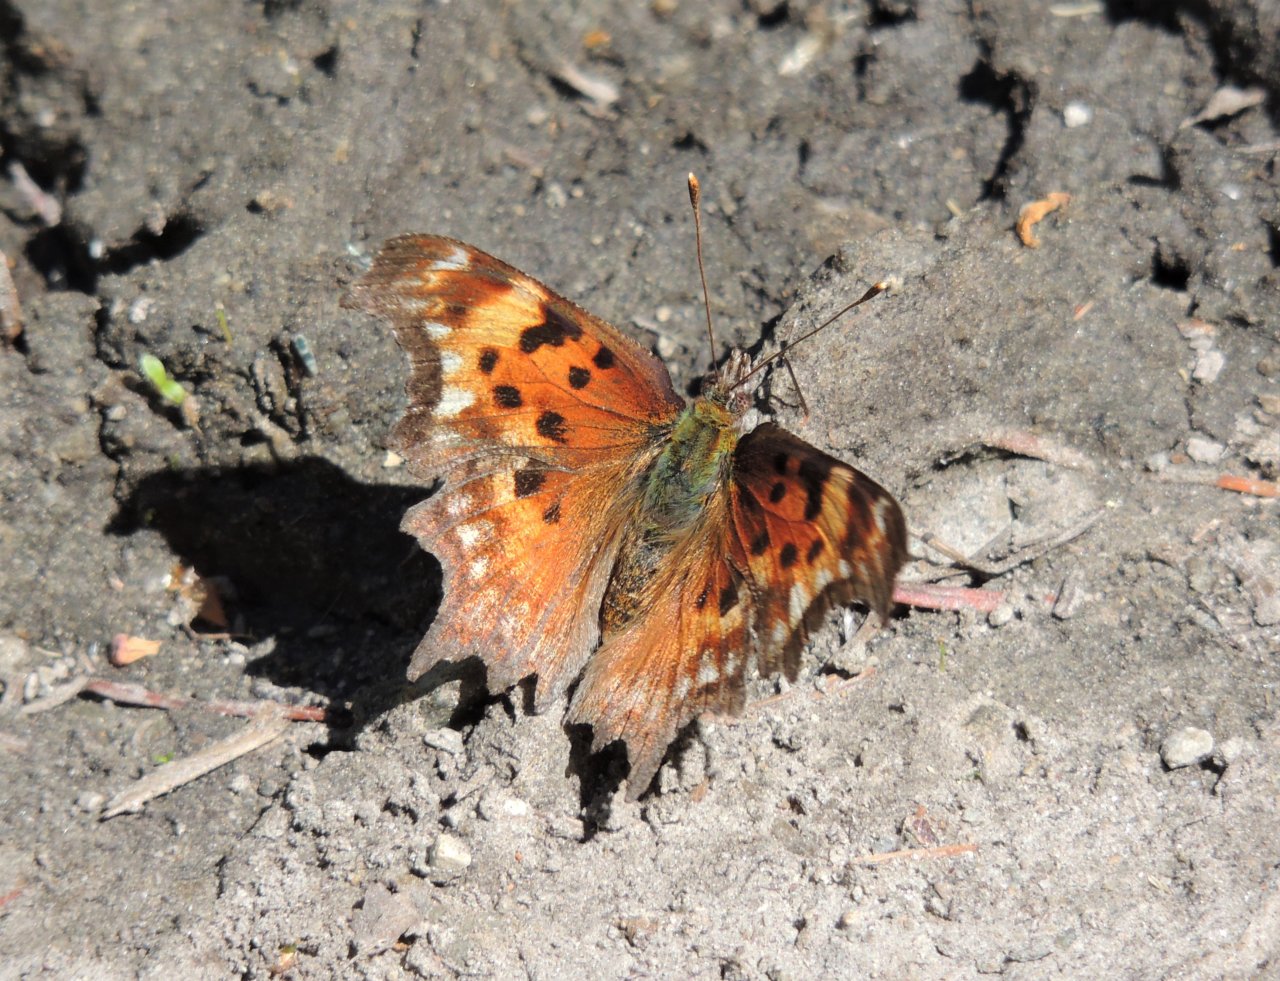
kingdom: Animalia
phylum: Arthropoda
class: Insecta
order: Lepidoptera
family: Nymphalidae
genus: Polygonia
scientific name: Polygonia gracilis
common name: Hoary Comma
